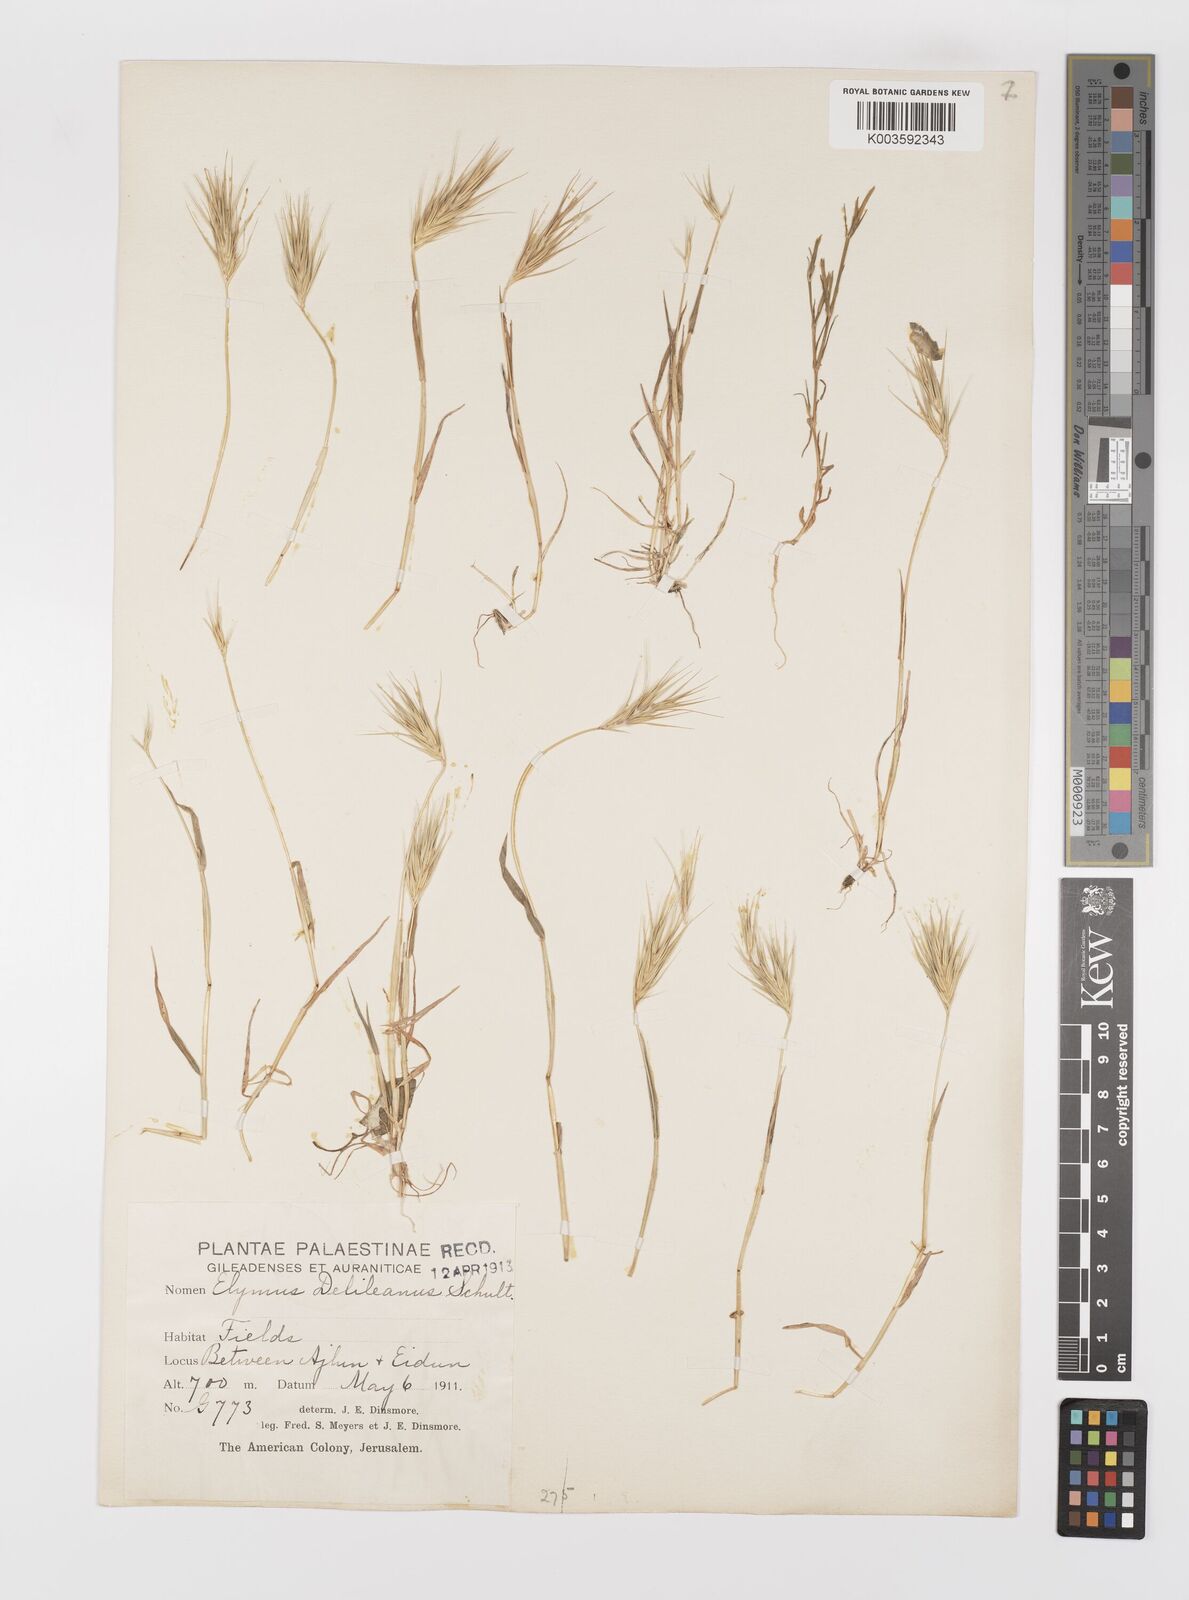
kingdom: Plantae
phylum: Tracheophyta
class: Liliopsida
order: Poales
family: Poaceae
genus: Crithopsis
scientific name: Crithopsis delileana
